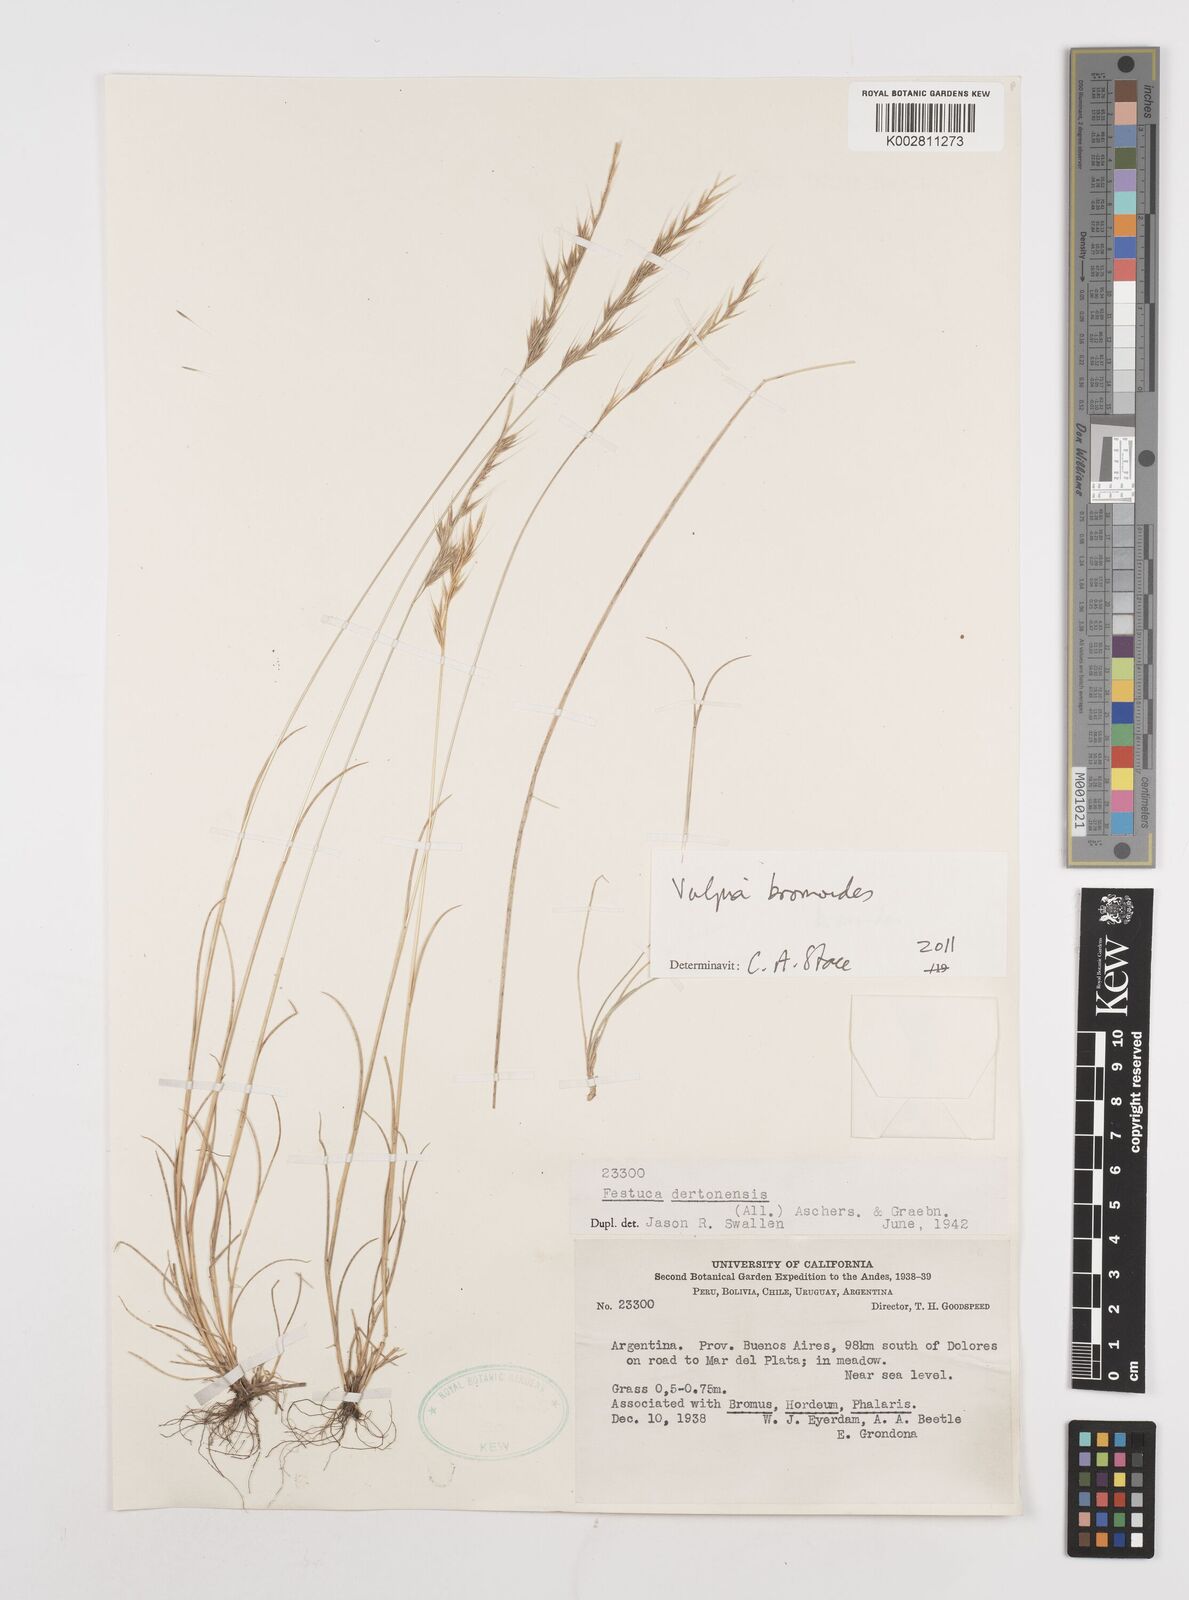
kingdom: Plantae
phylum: Tracheophyta
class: Liliopsida
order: Poales
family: Poaceae
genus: Festuca
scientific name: Festuca bromoides
